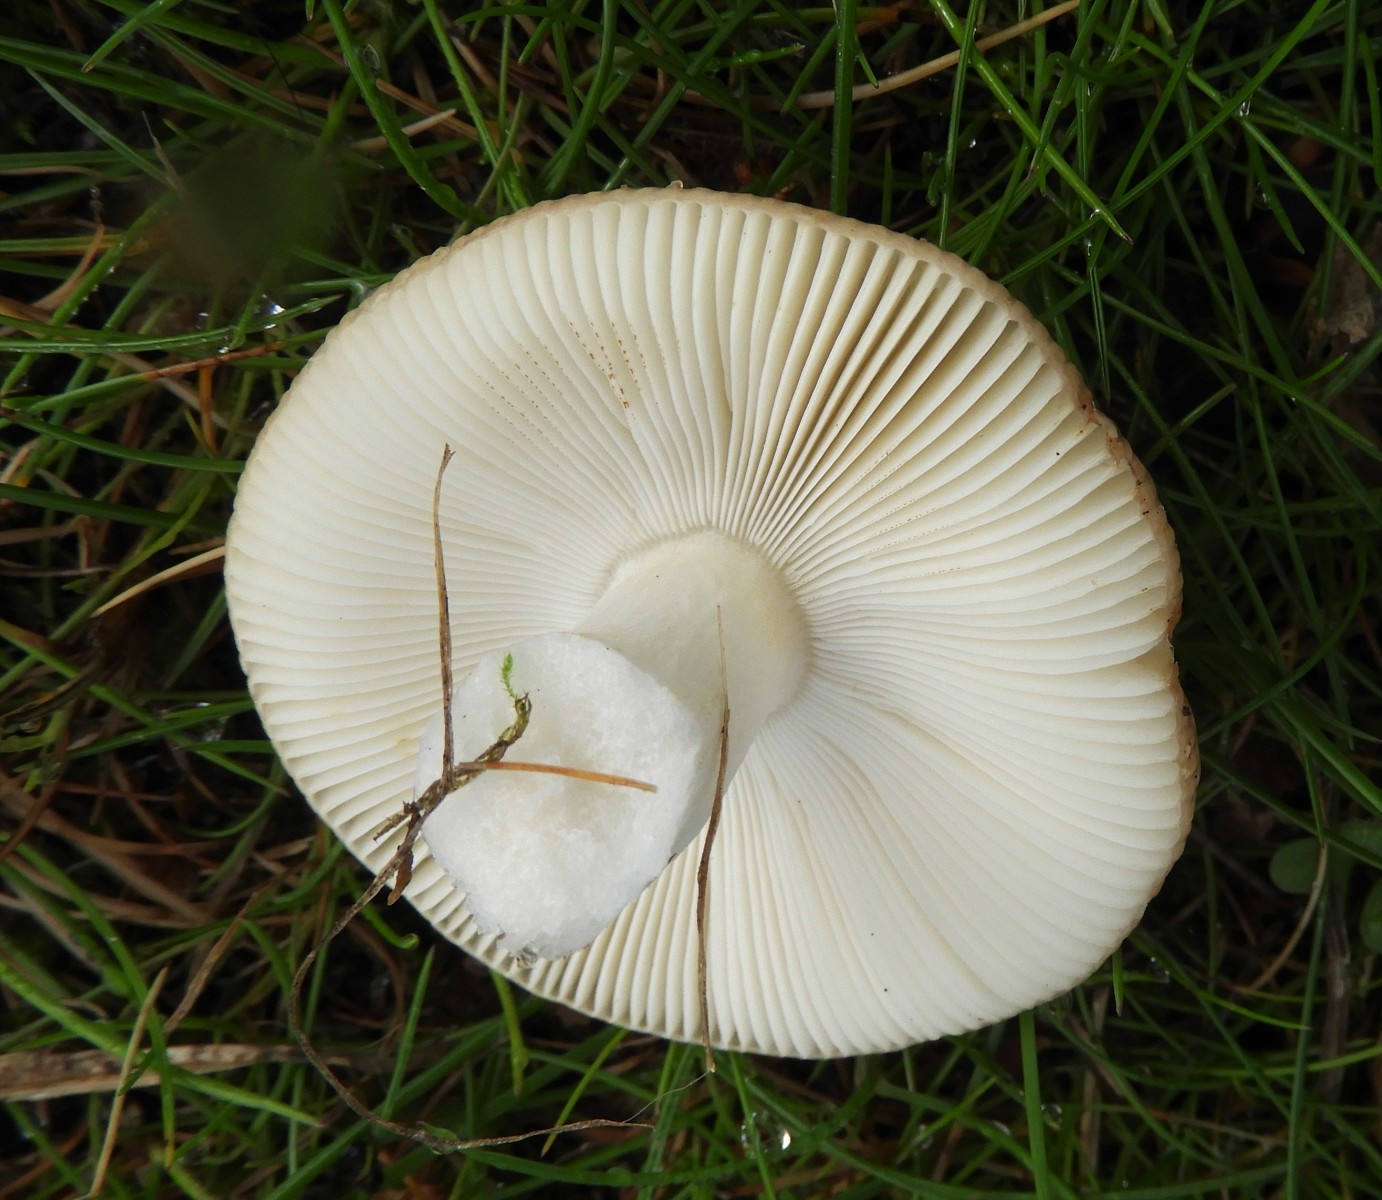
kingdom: Fungi
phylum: Basidiomycota
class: Agaricomycetes
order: Russulales
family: Russulaceae
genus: Russula
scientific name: Russula depallens
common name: falmende skørhat
